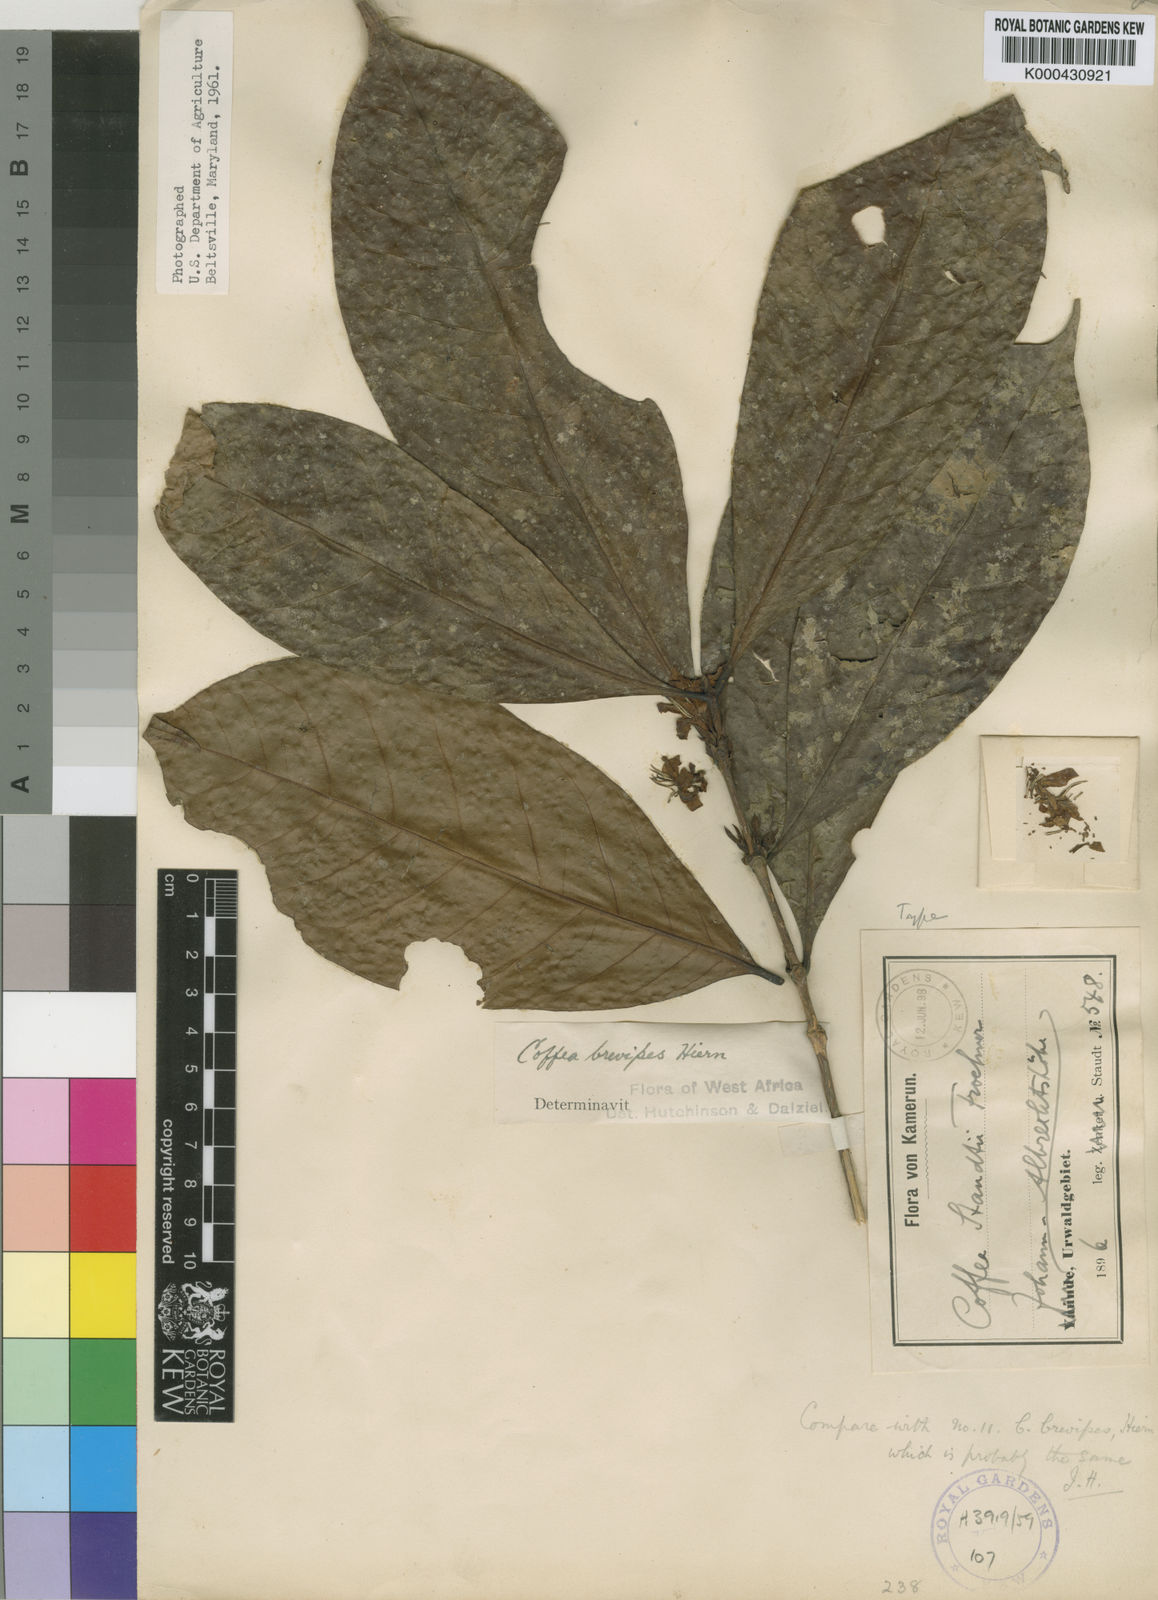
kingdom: Plantae
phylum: Tracheophyta
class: Magnoliopsida
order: Gentianales
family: Rubiaceae
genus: Coffea
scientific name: Coffea brevipes
